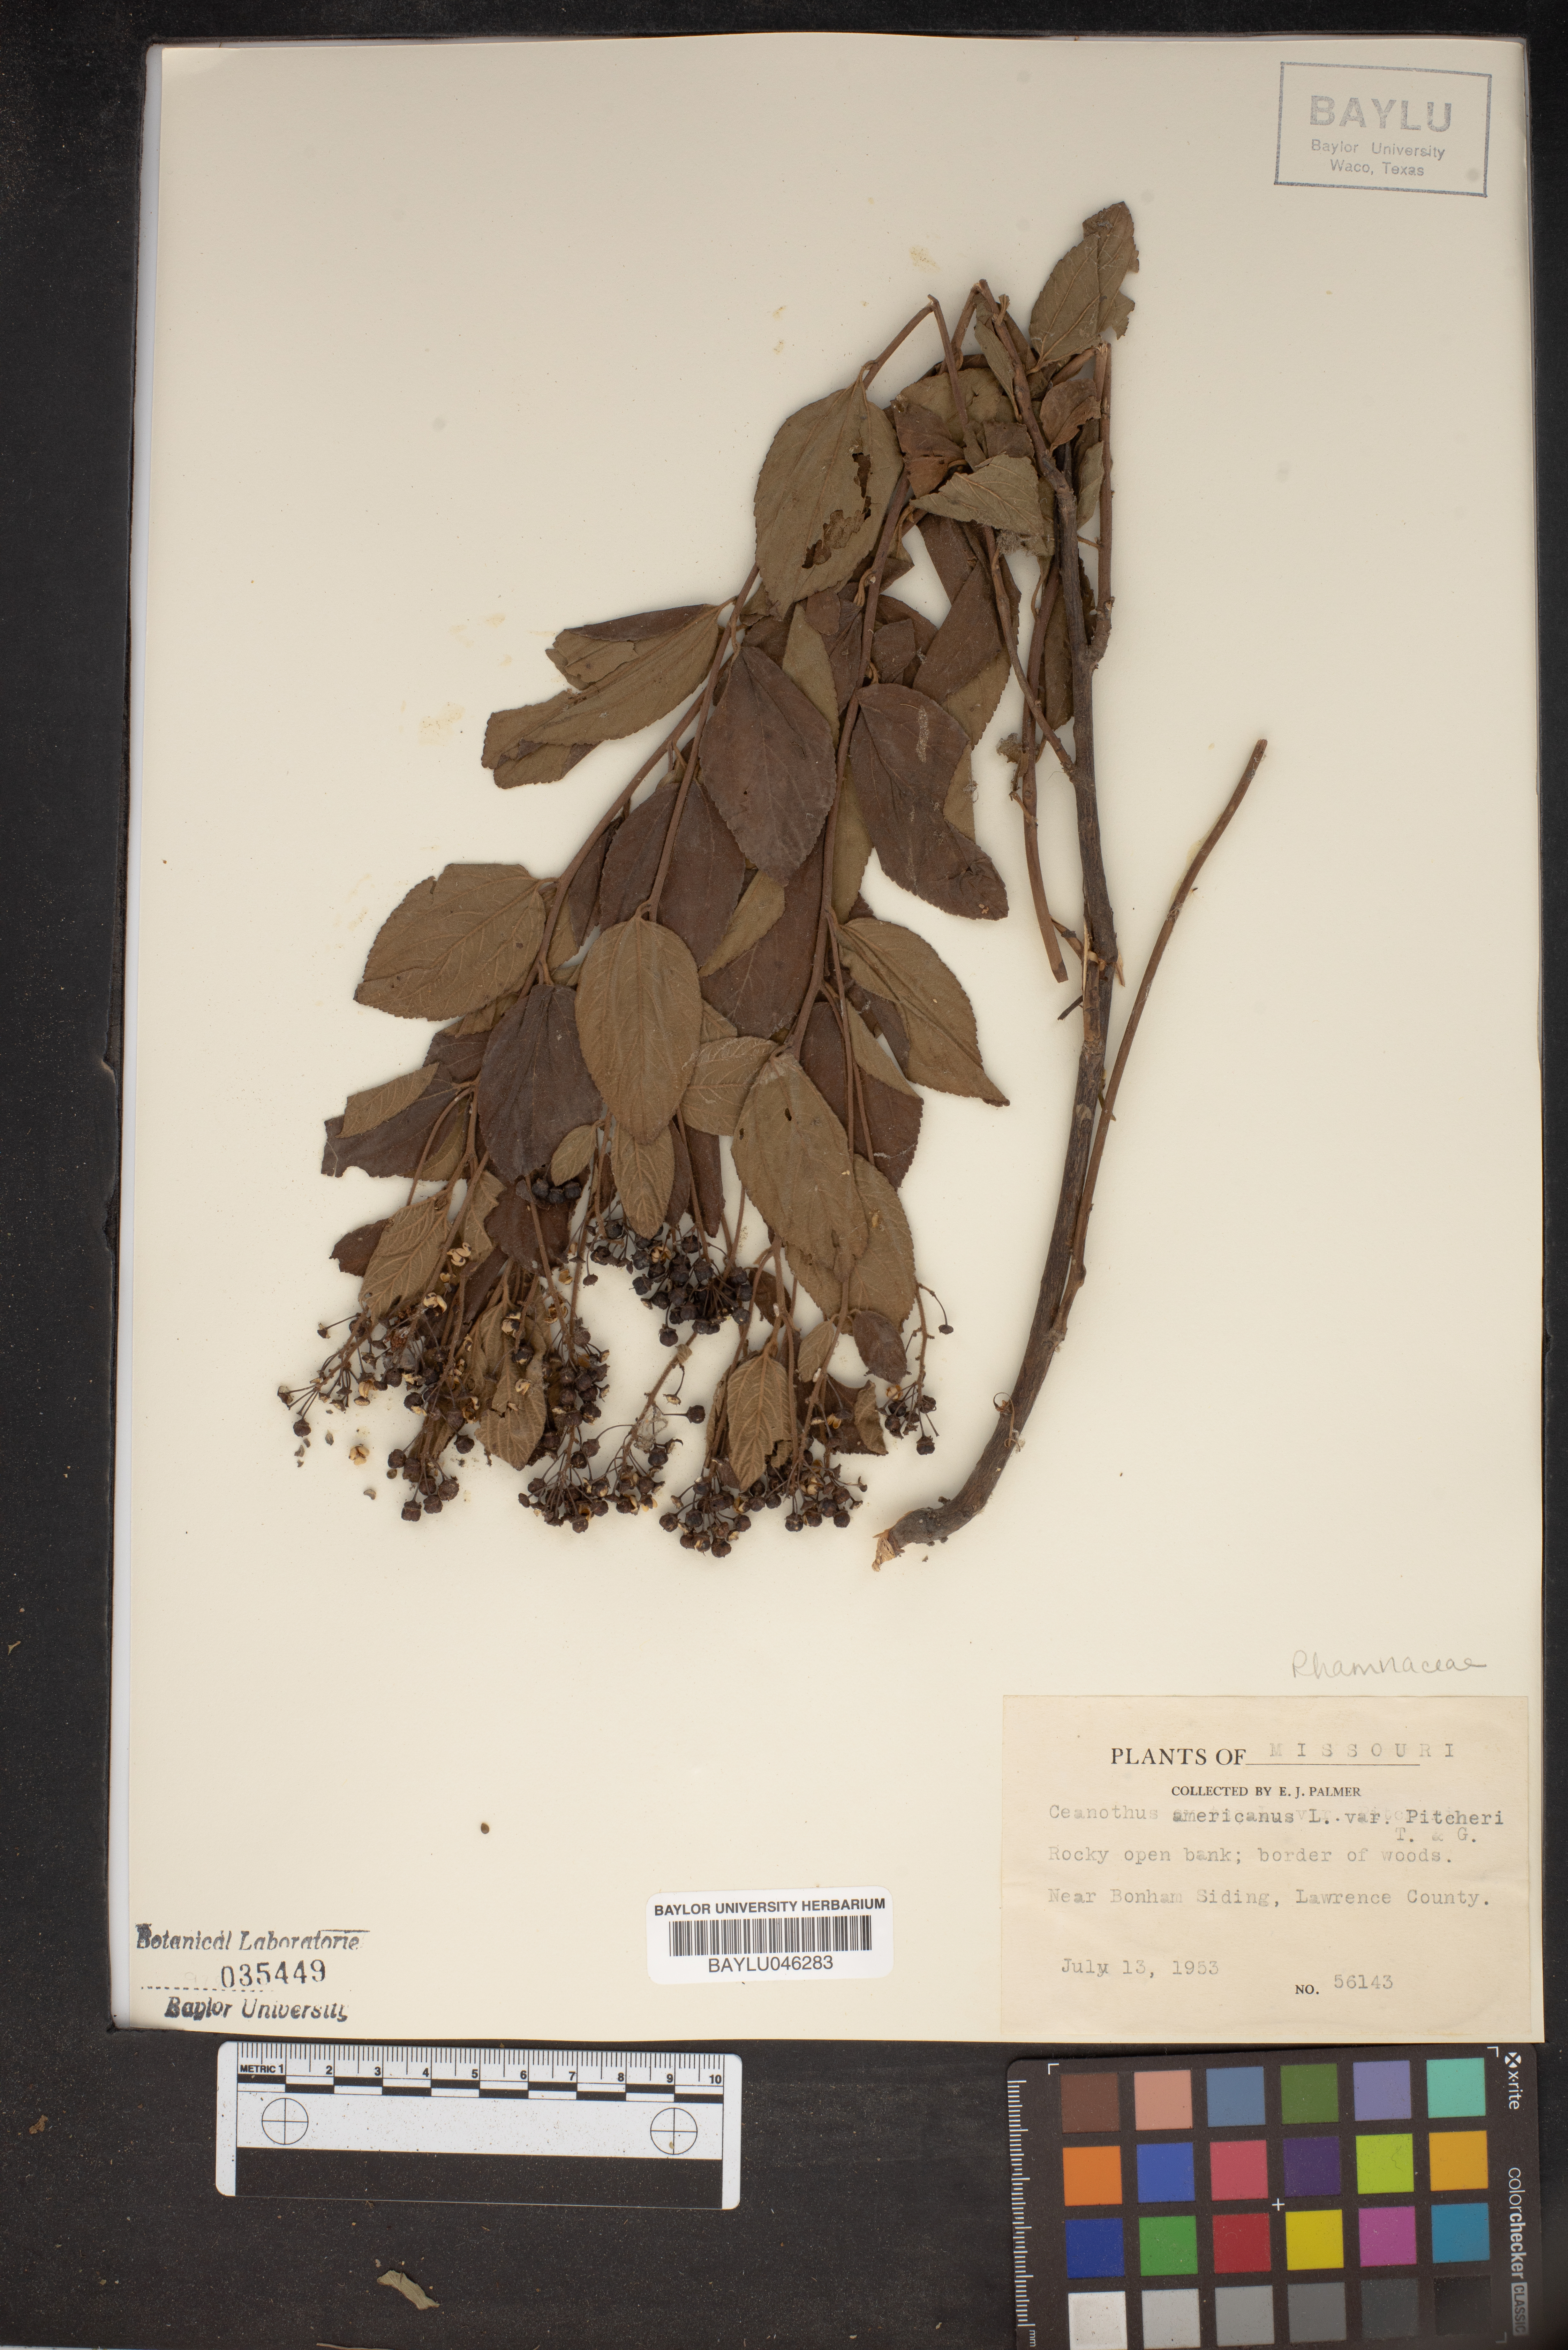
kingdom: Plantae
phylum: Tracheophyta
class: Magnoliopsida
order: Rosales
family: Rhamnaceae
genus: Ceanothus
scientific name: Ceanothus americanus
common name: Redroot
